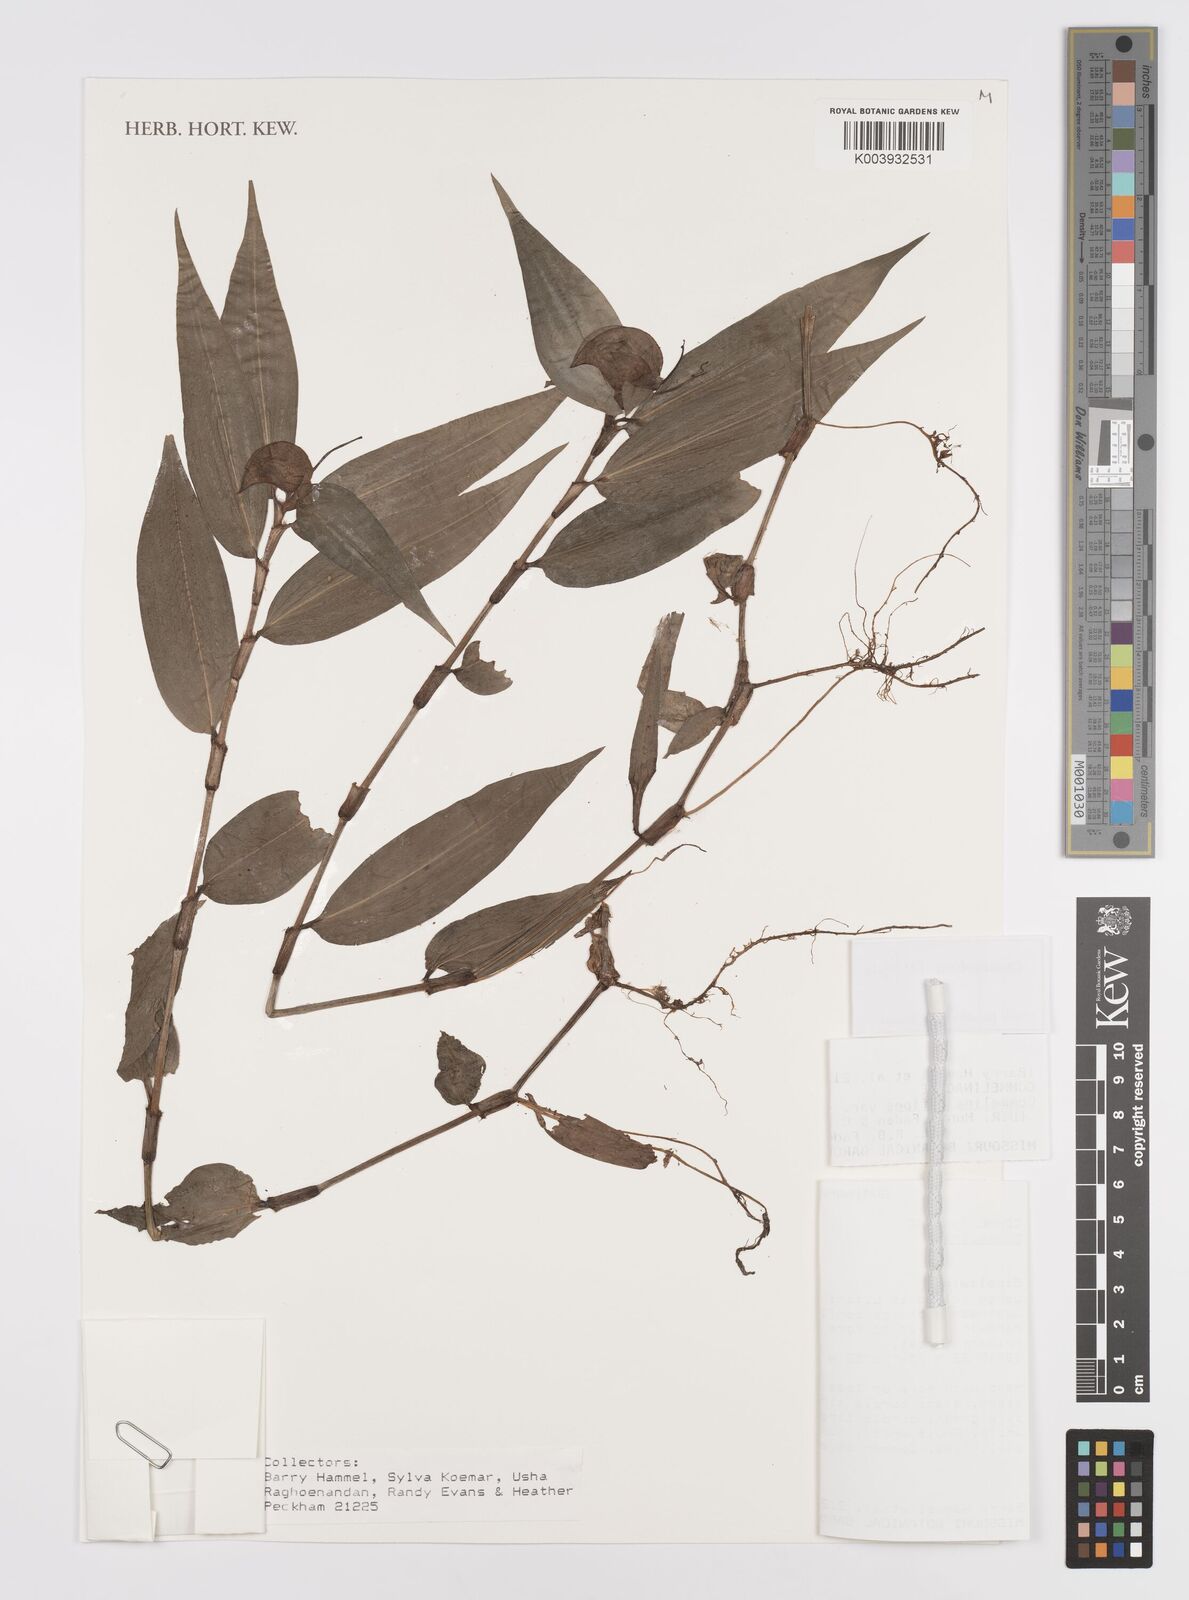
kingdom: Plantae
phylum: Tracheophyta
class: Liliopsida
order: Commelinales
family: Commelinaceae
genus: Commelina
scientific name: Commelina rufipes
